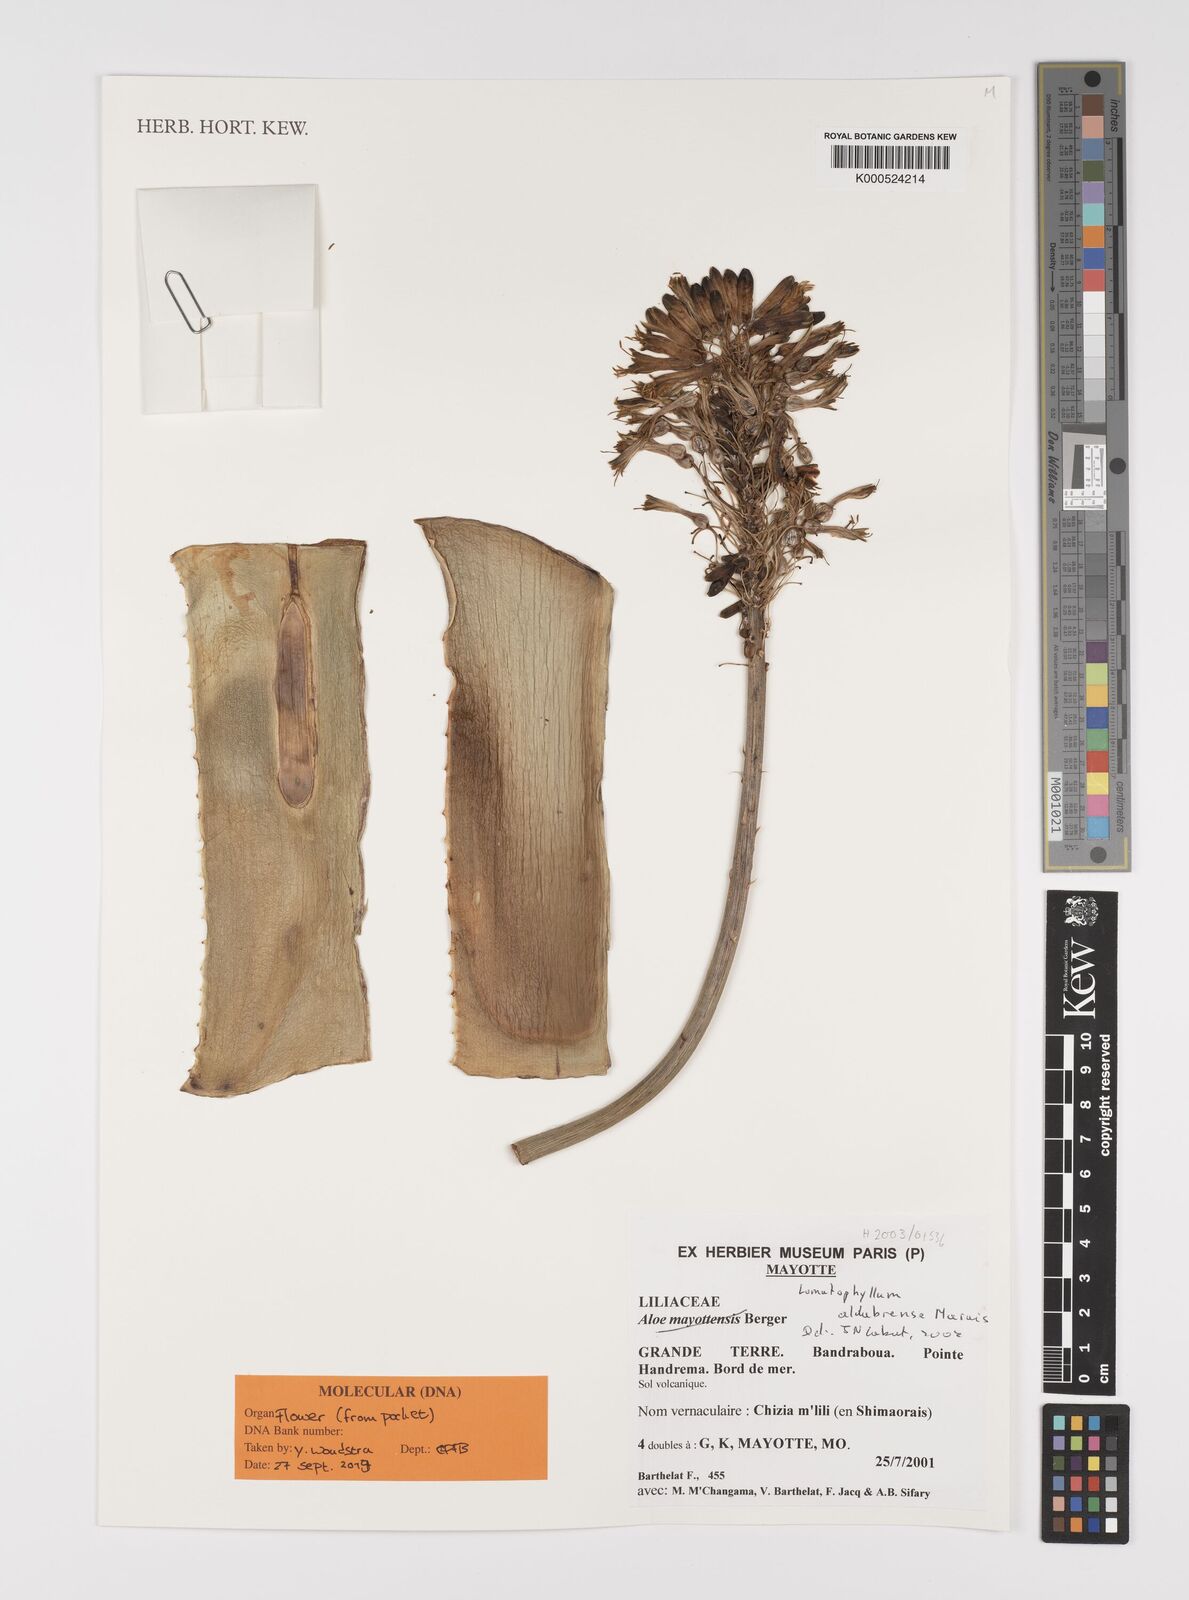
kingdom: Plantae
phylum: Tracheophyta
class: Liliopsida
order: Asparagales
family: Asphodelaceae
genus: Aloe
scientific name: Aloe aldabrensis
